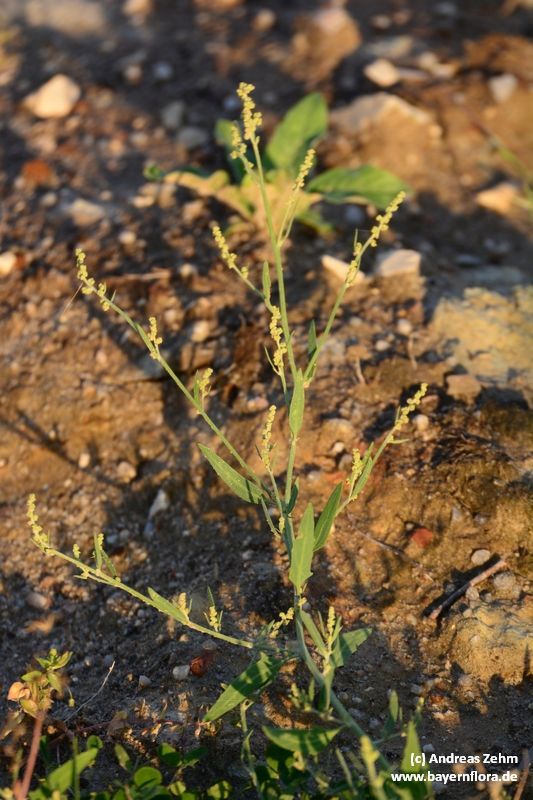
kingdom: Plantae
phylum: Tracheophyta
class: Magnoliopsida
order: Caryophyllales
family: Amaranthaceae
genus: Atriplex
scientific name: Atriplex patula
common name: Common orache
